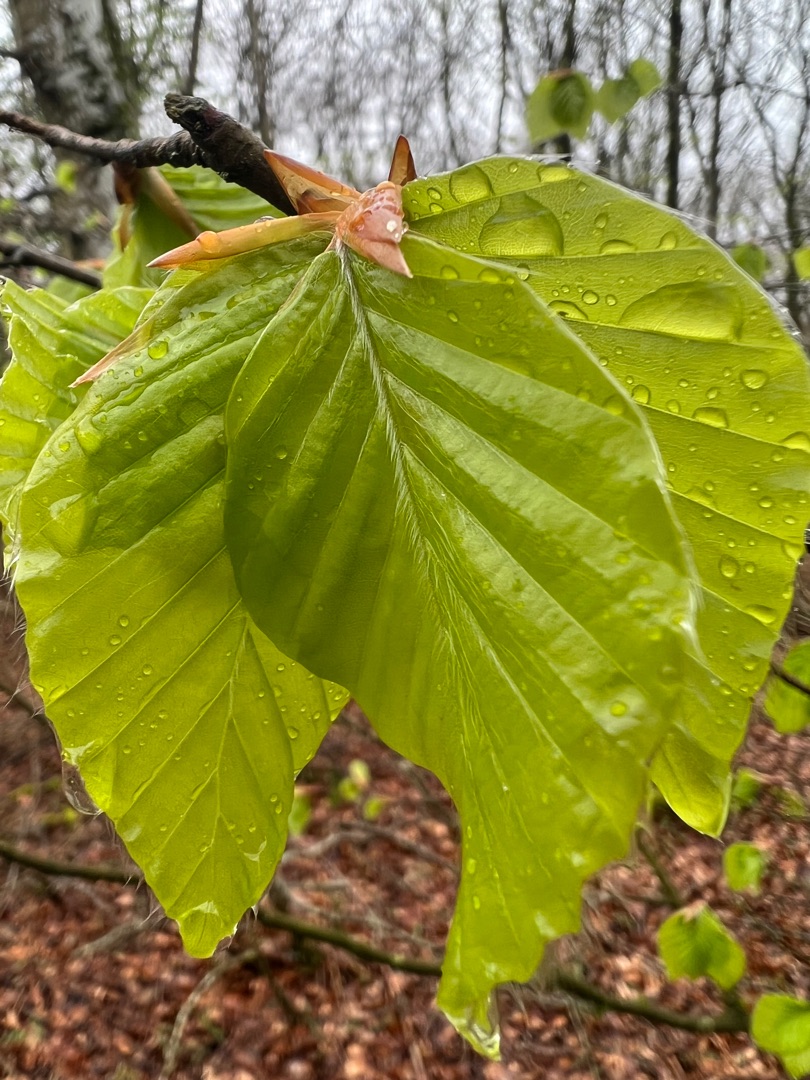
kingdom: Plantae
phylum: Tracheophyta
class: Magnoliopsida
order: Fagales
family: Fagaceae
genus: Fagus
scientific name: Fagus sylvatica
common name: Bøg
